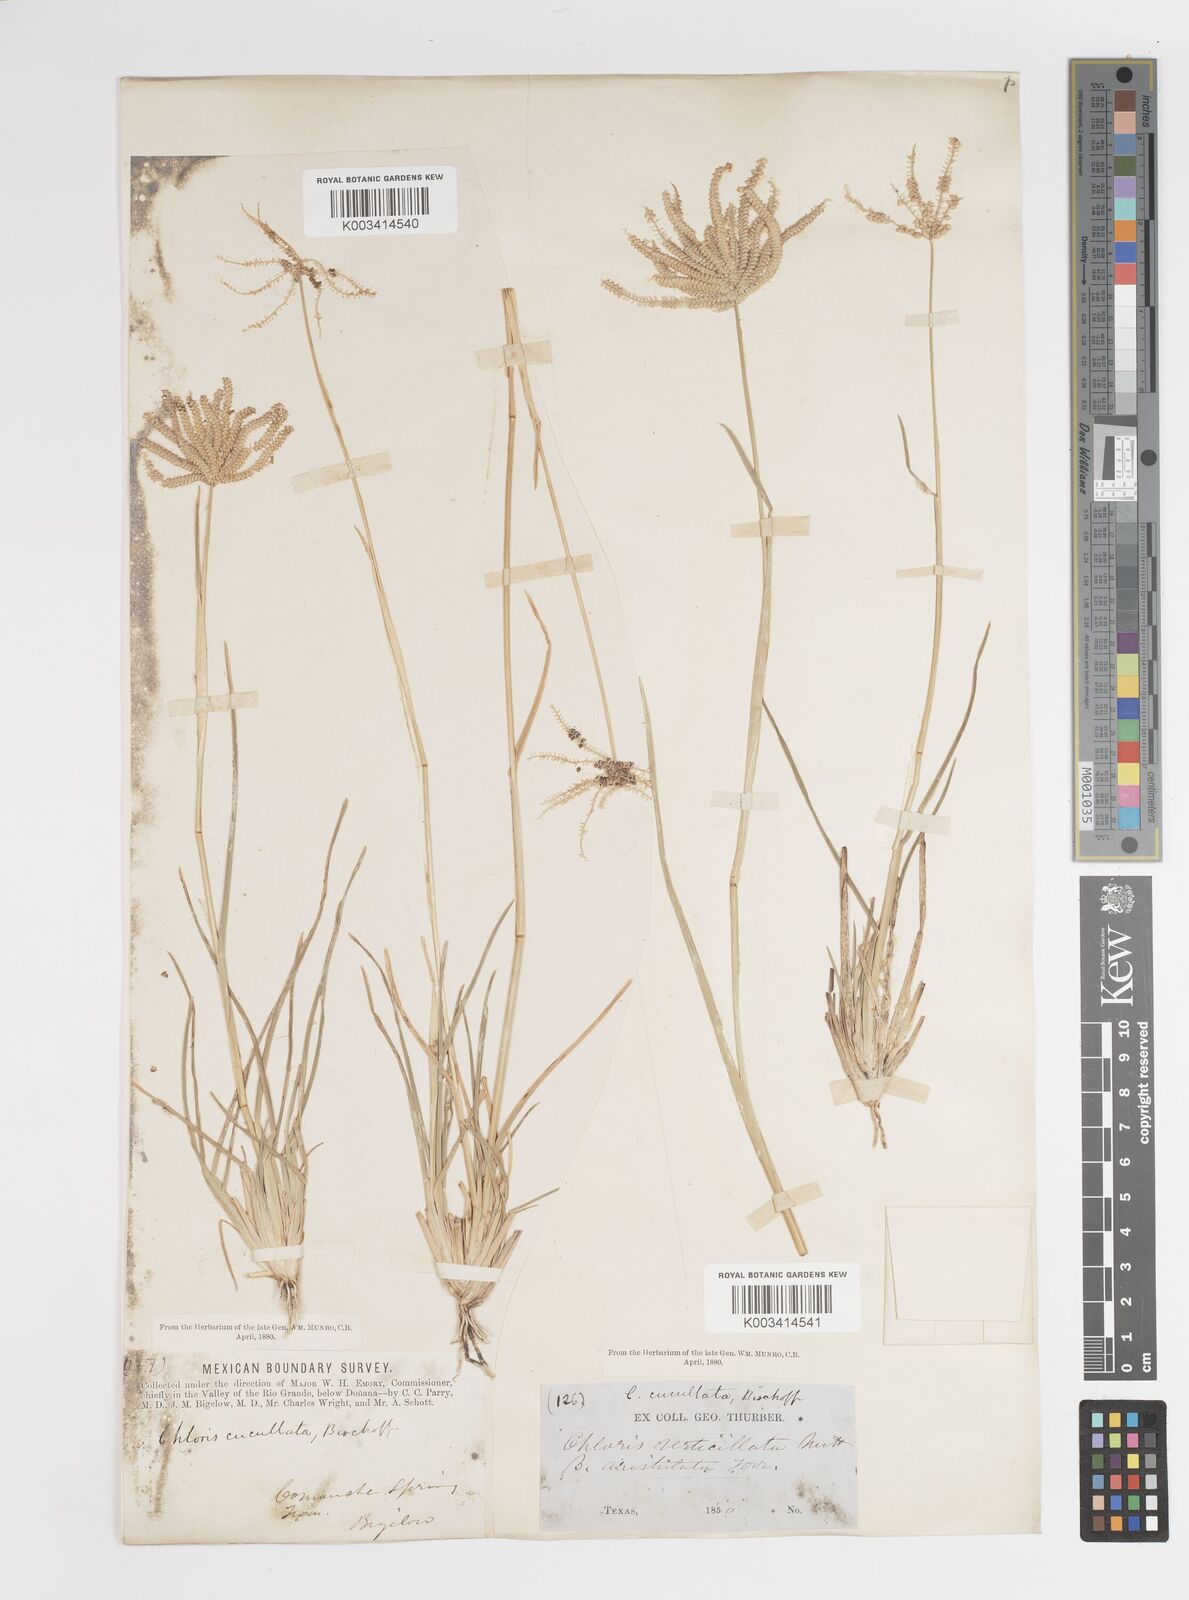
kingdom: Plantae
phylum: Tracheophyta
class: Liliopsida
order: Poales
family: Poaceae
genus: Chloris
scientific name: Chloris cucullata
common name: Hooded windmill grass
